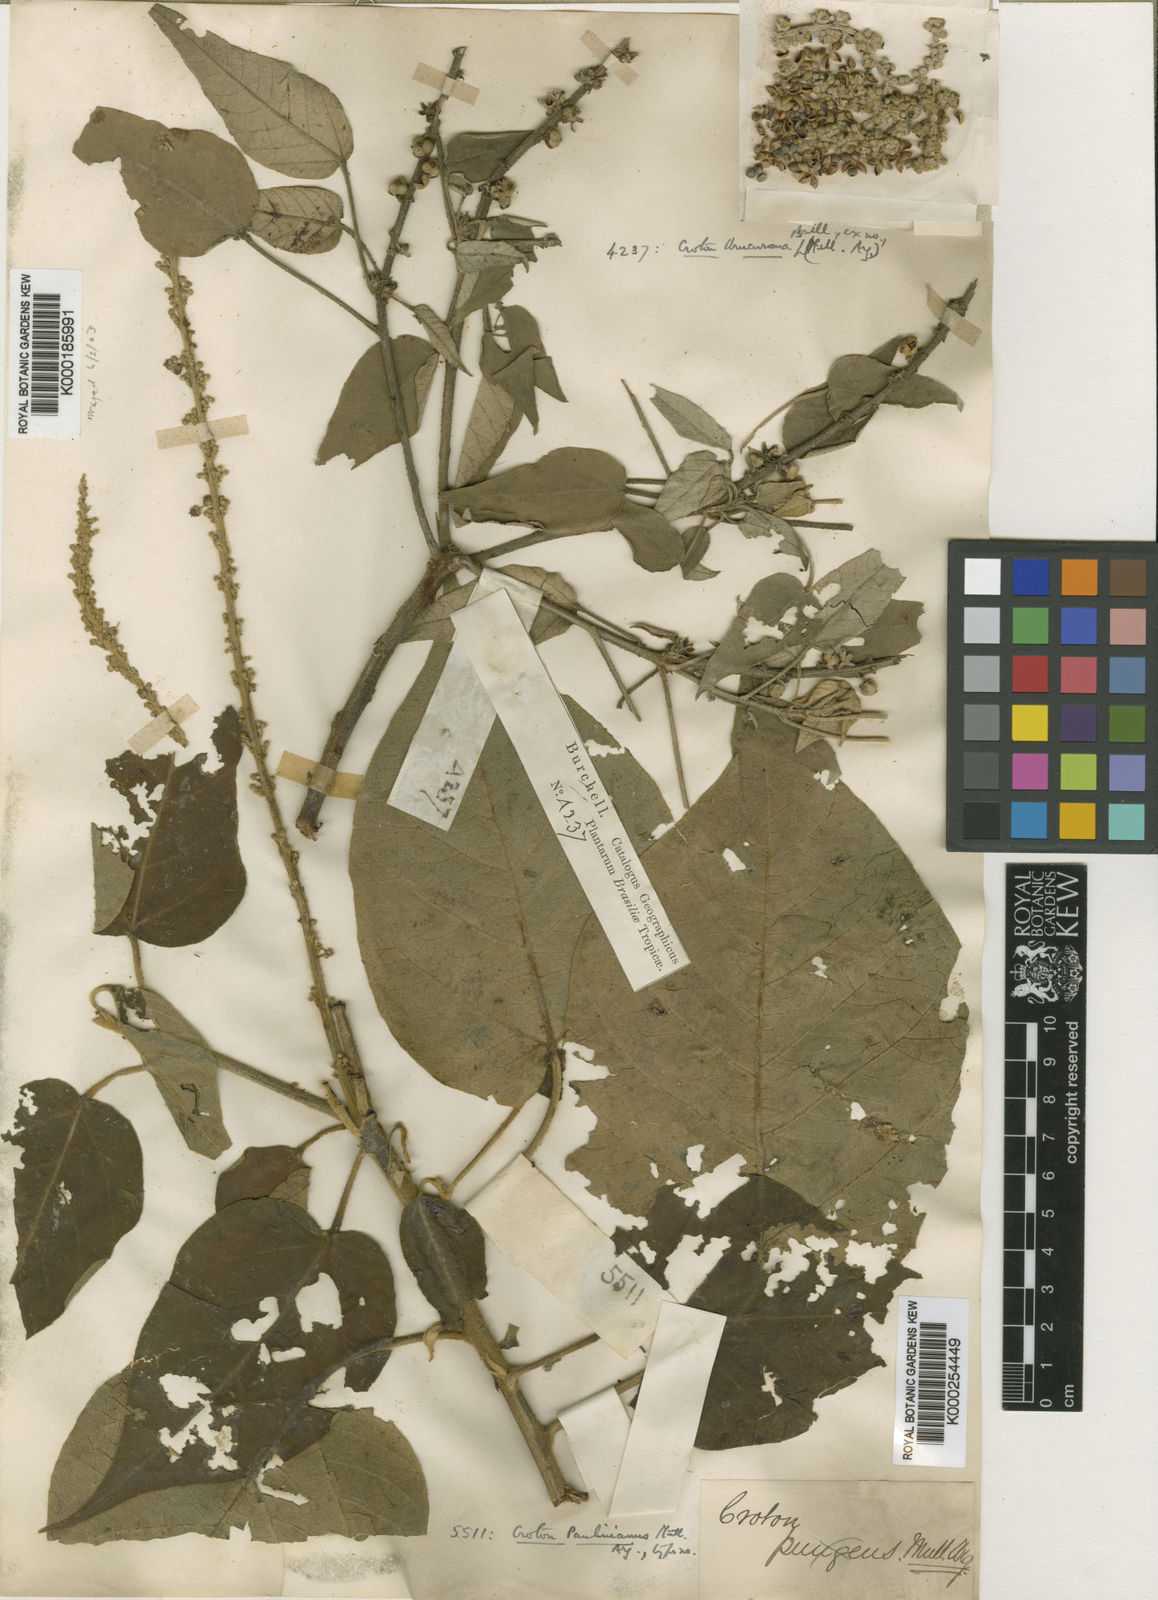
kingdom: Plantae
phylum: Tracheophyta
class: Magnoliopsida
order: Malpighiales
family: Euphorbiaceae
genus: Croton
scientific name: Croton
